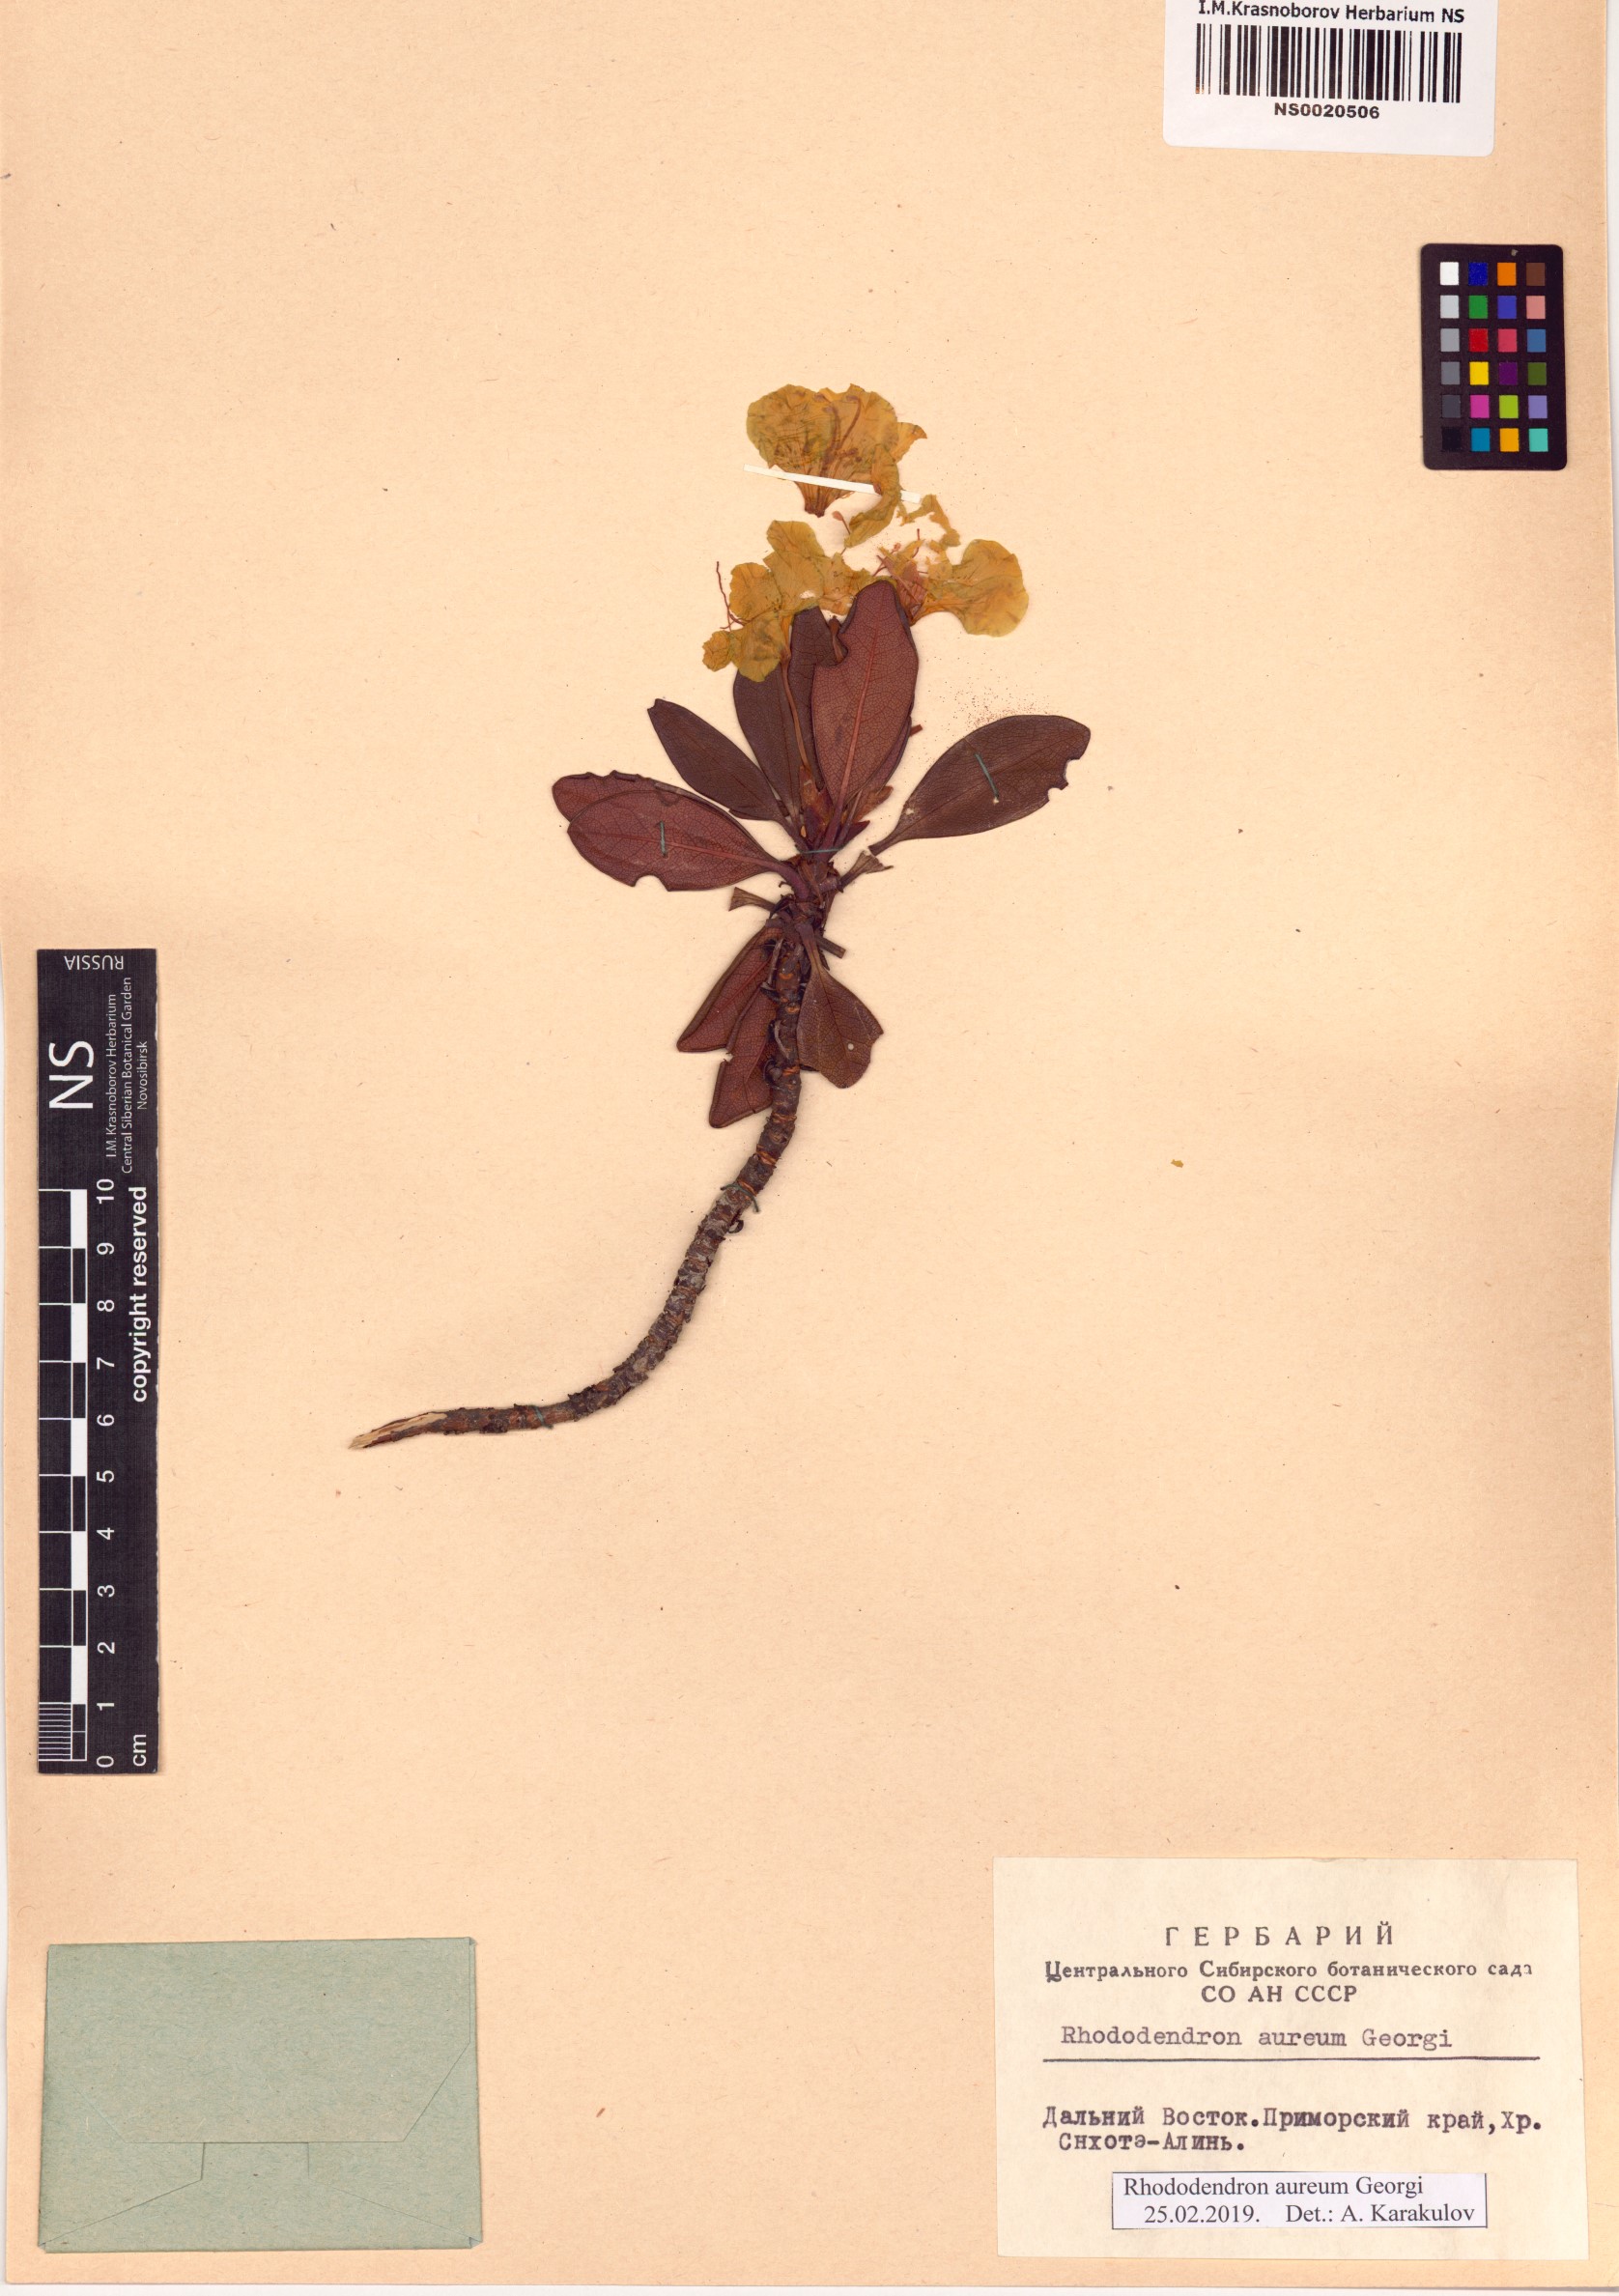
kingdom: Plantae
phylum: Tracheophyta
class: Magnoliopsida
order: Ericales
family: Ericaceae
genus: Rhododendron
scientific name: Rhododendron aureum
